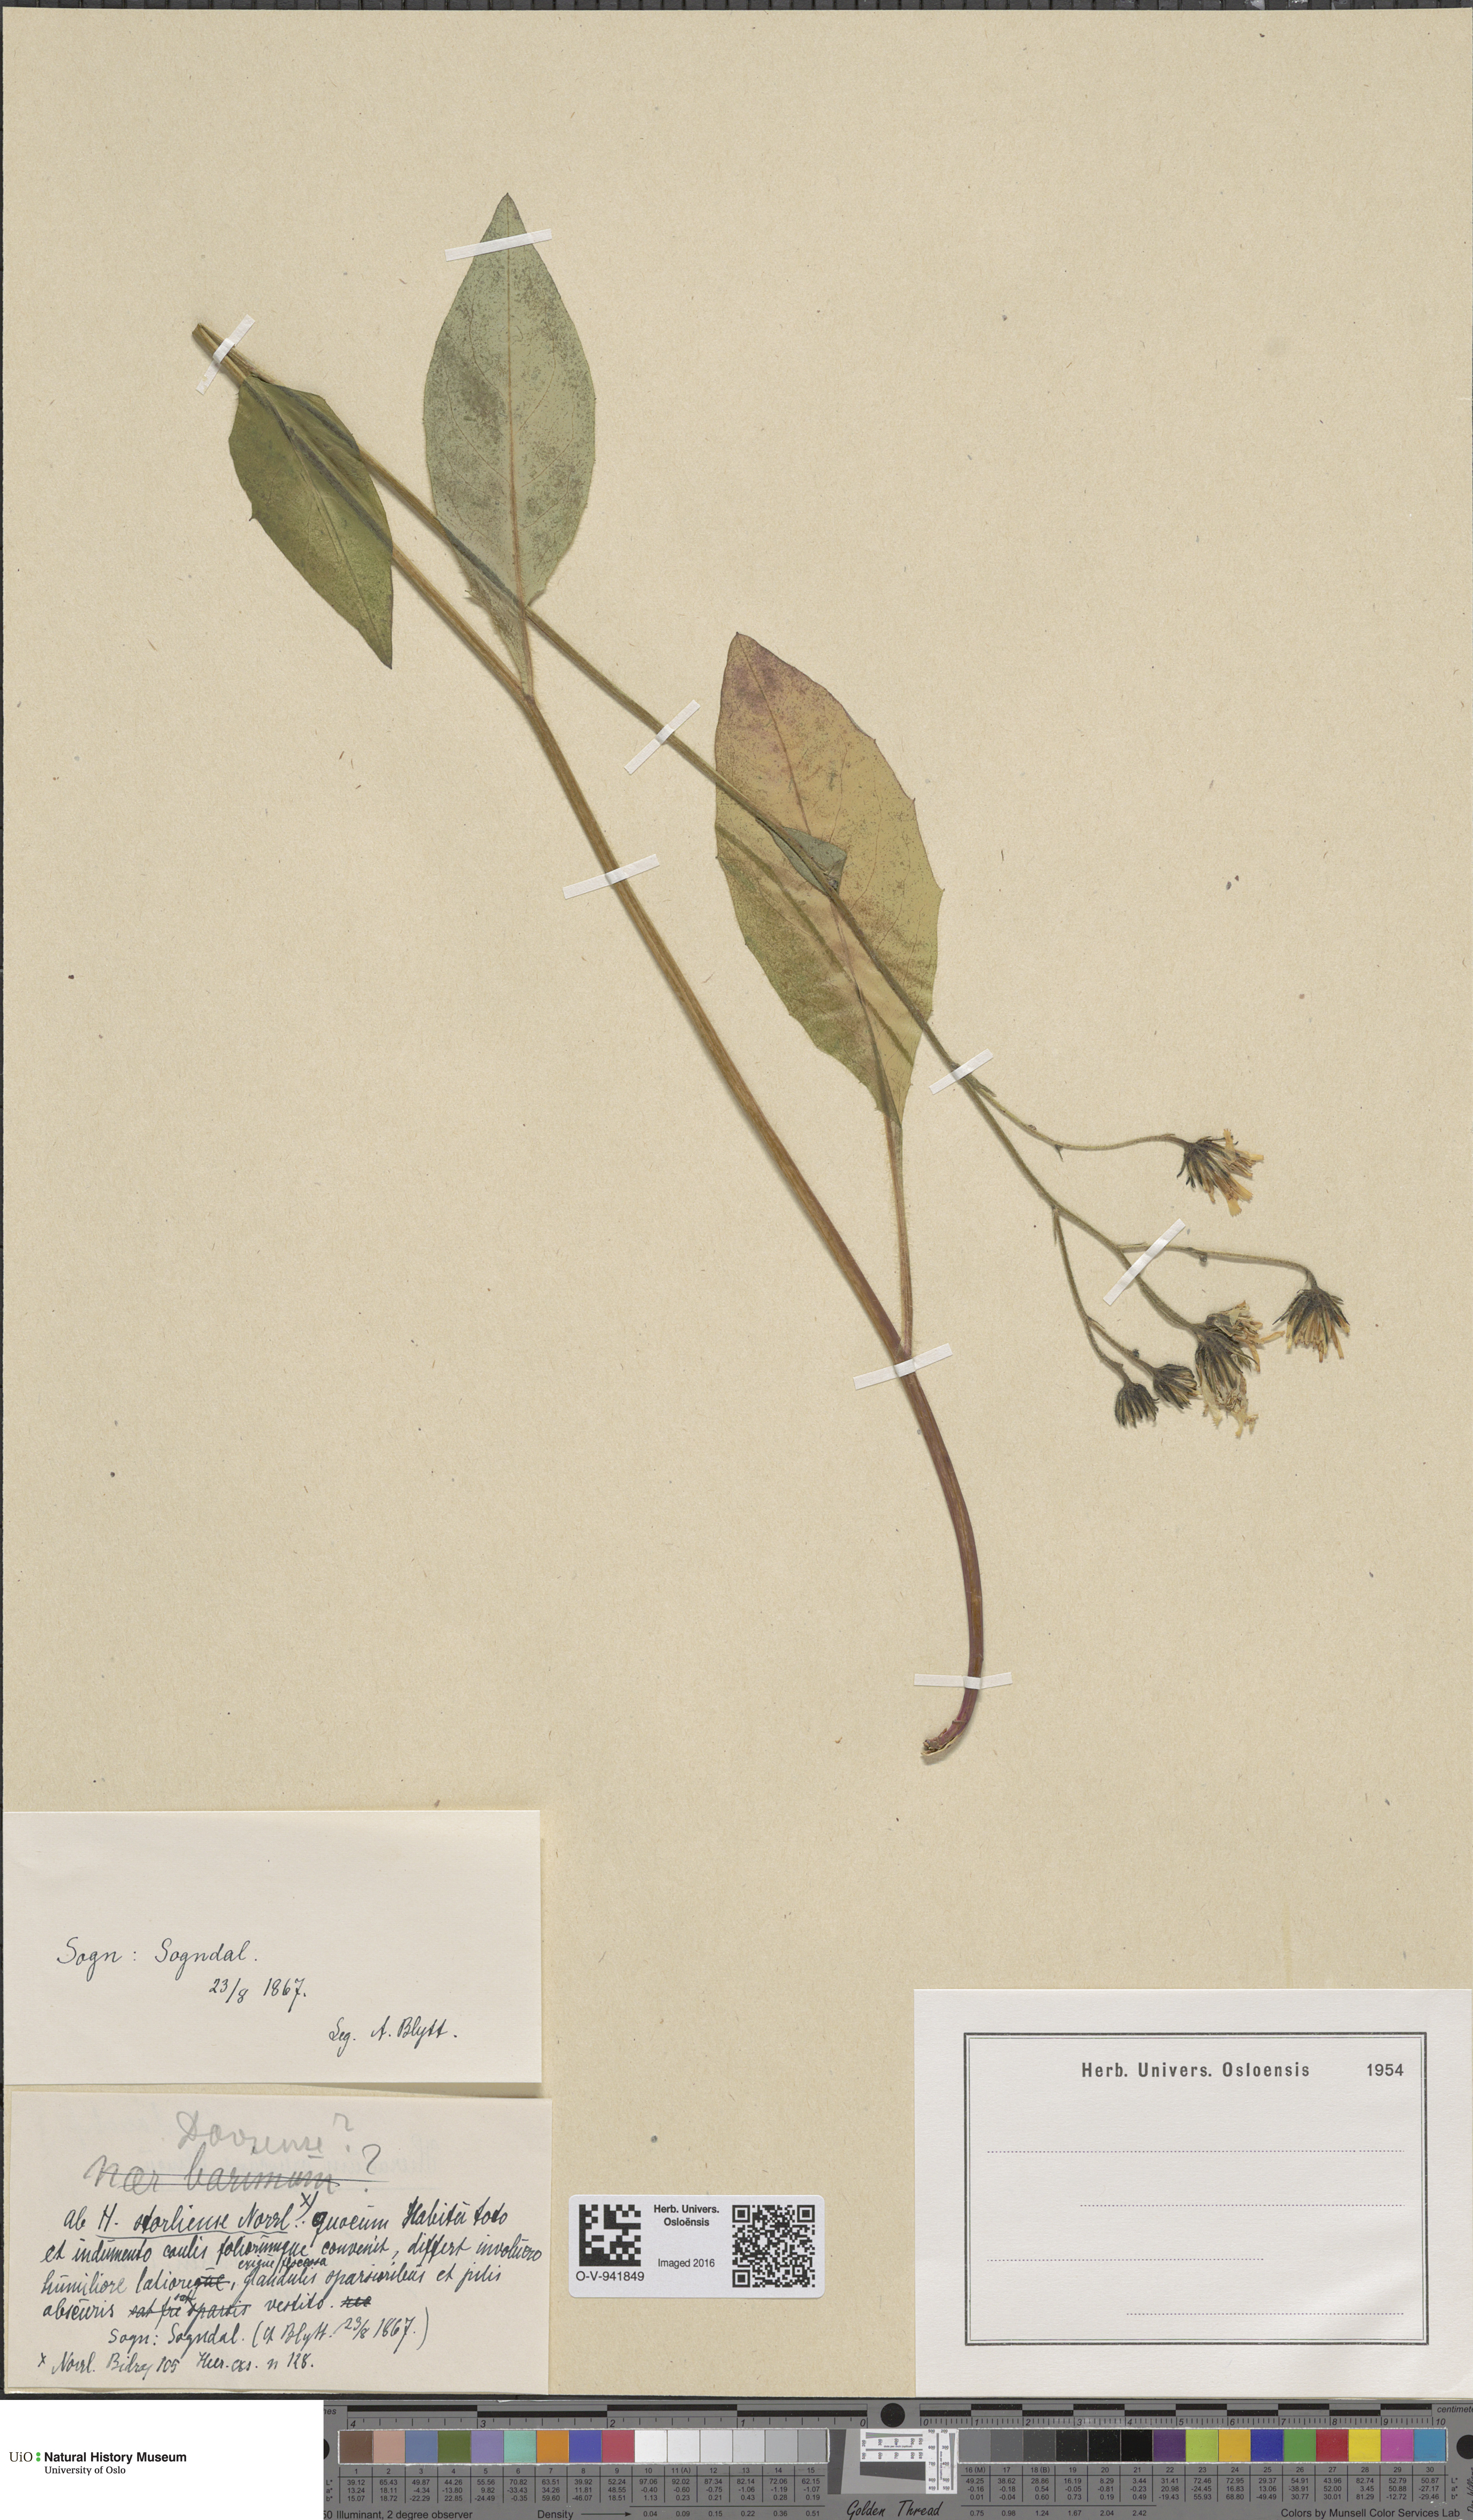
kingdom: Plantae
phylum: Tracheophyta
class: Magnoliopsida
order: Asterales
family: Asteraceae
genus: Hieracium
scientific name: Hieracium dovrense
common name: Dovre hawkweed
